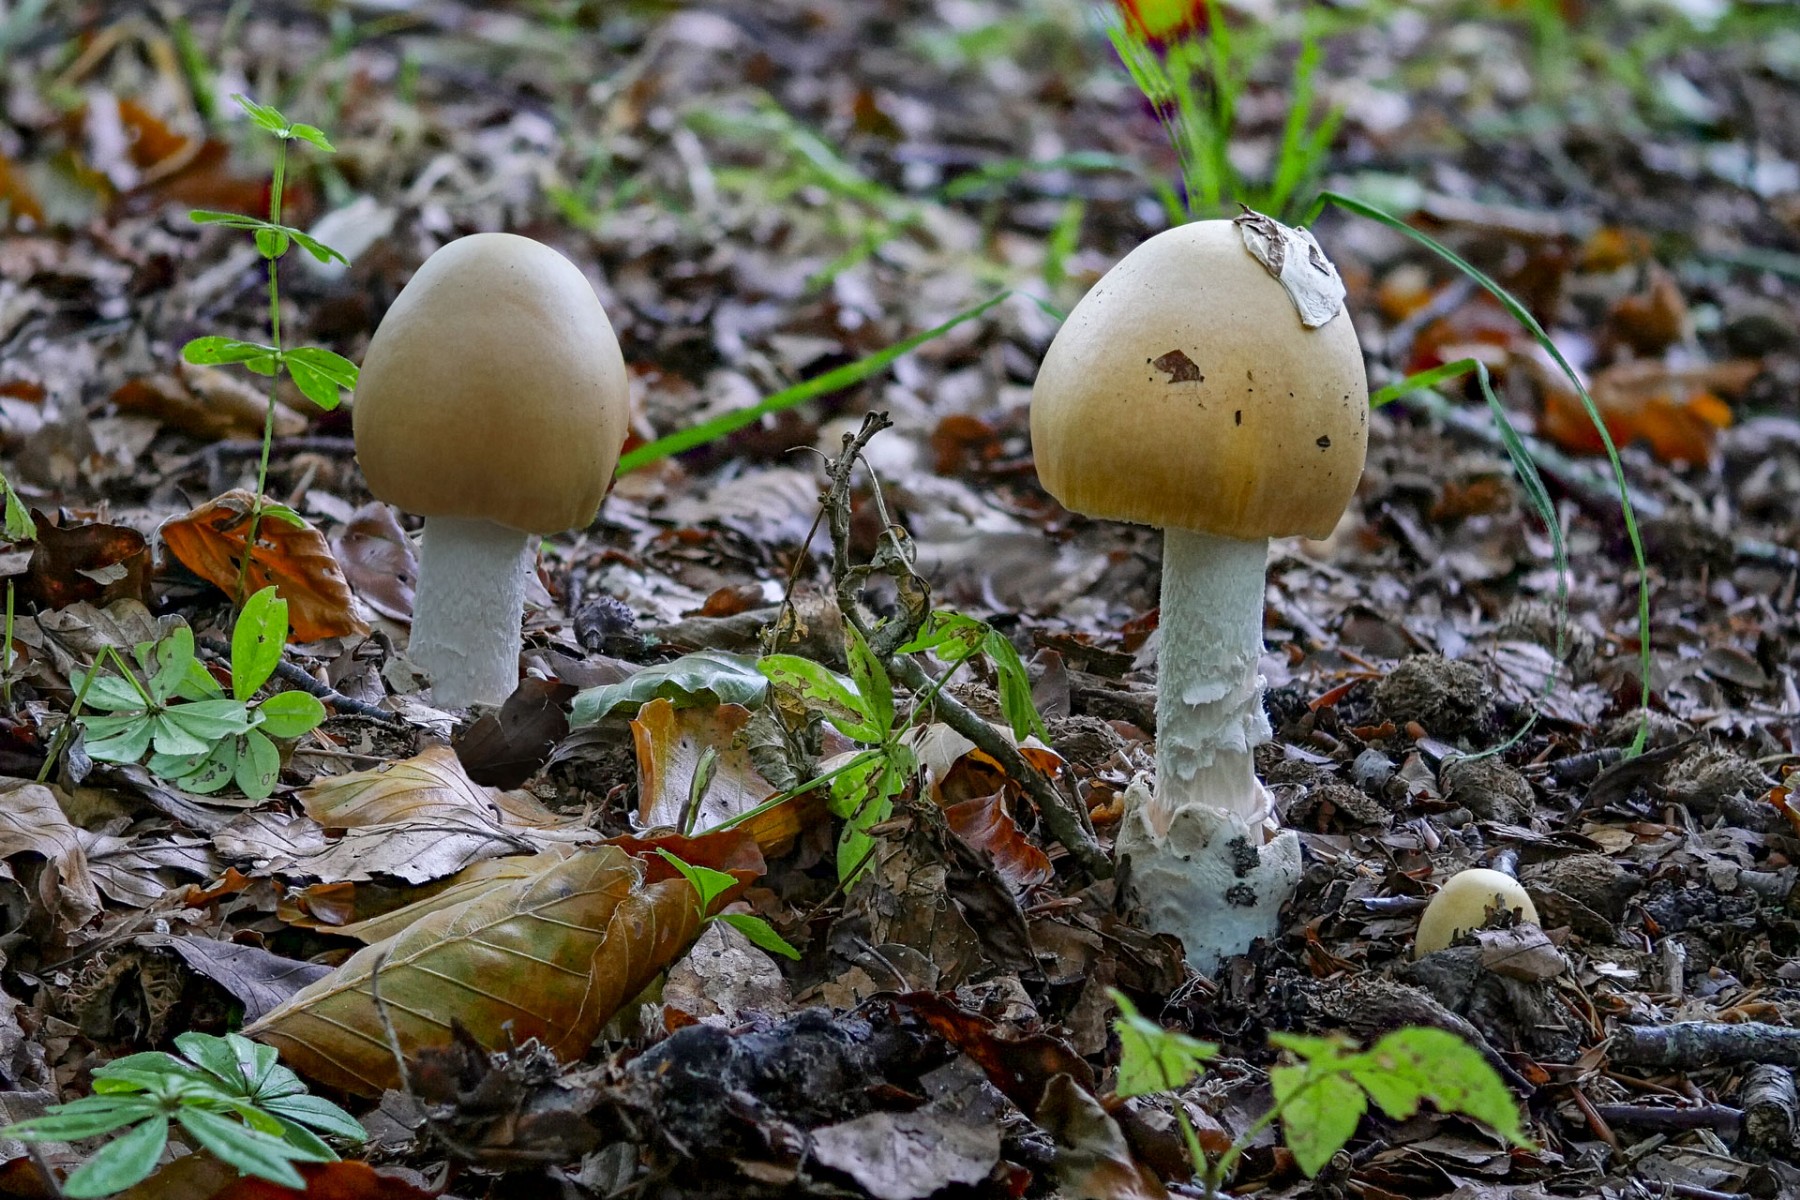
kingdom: Fungi
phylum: Basidiomycota
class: Agaricomycetes
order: Agaricales
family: Amanitaceae
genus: Amanita
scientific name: Amanita contui
